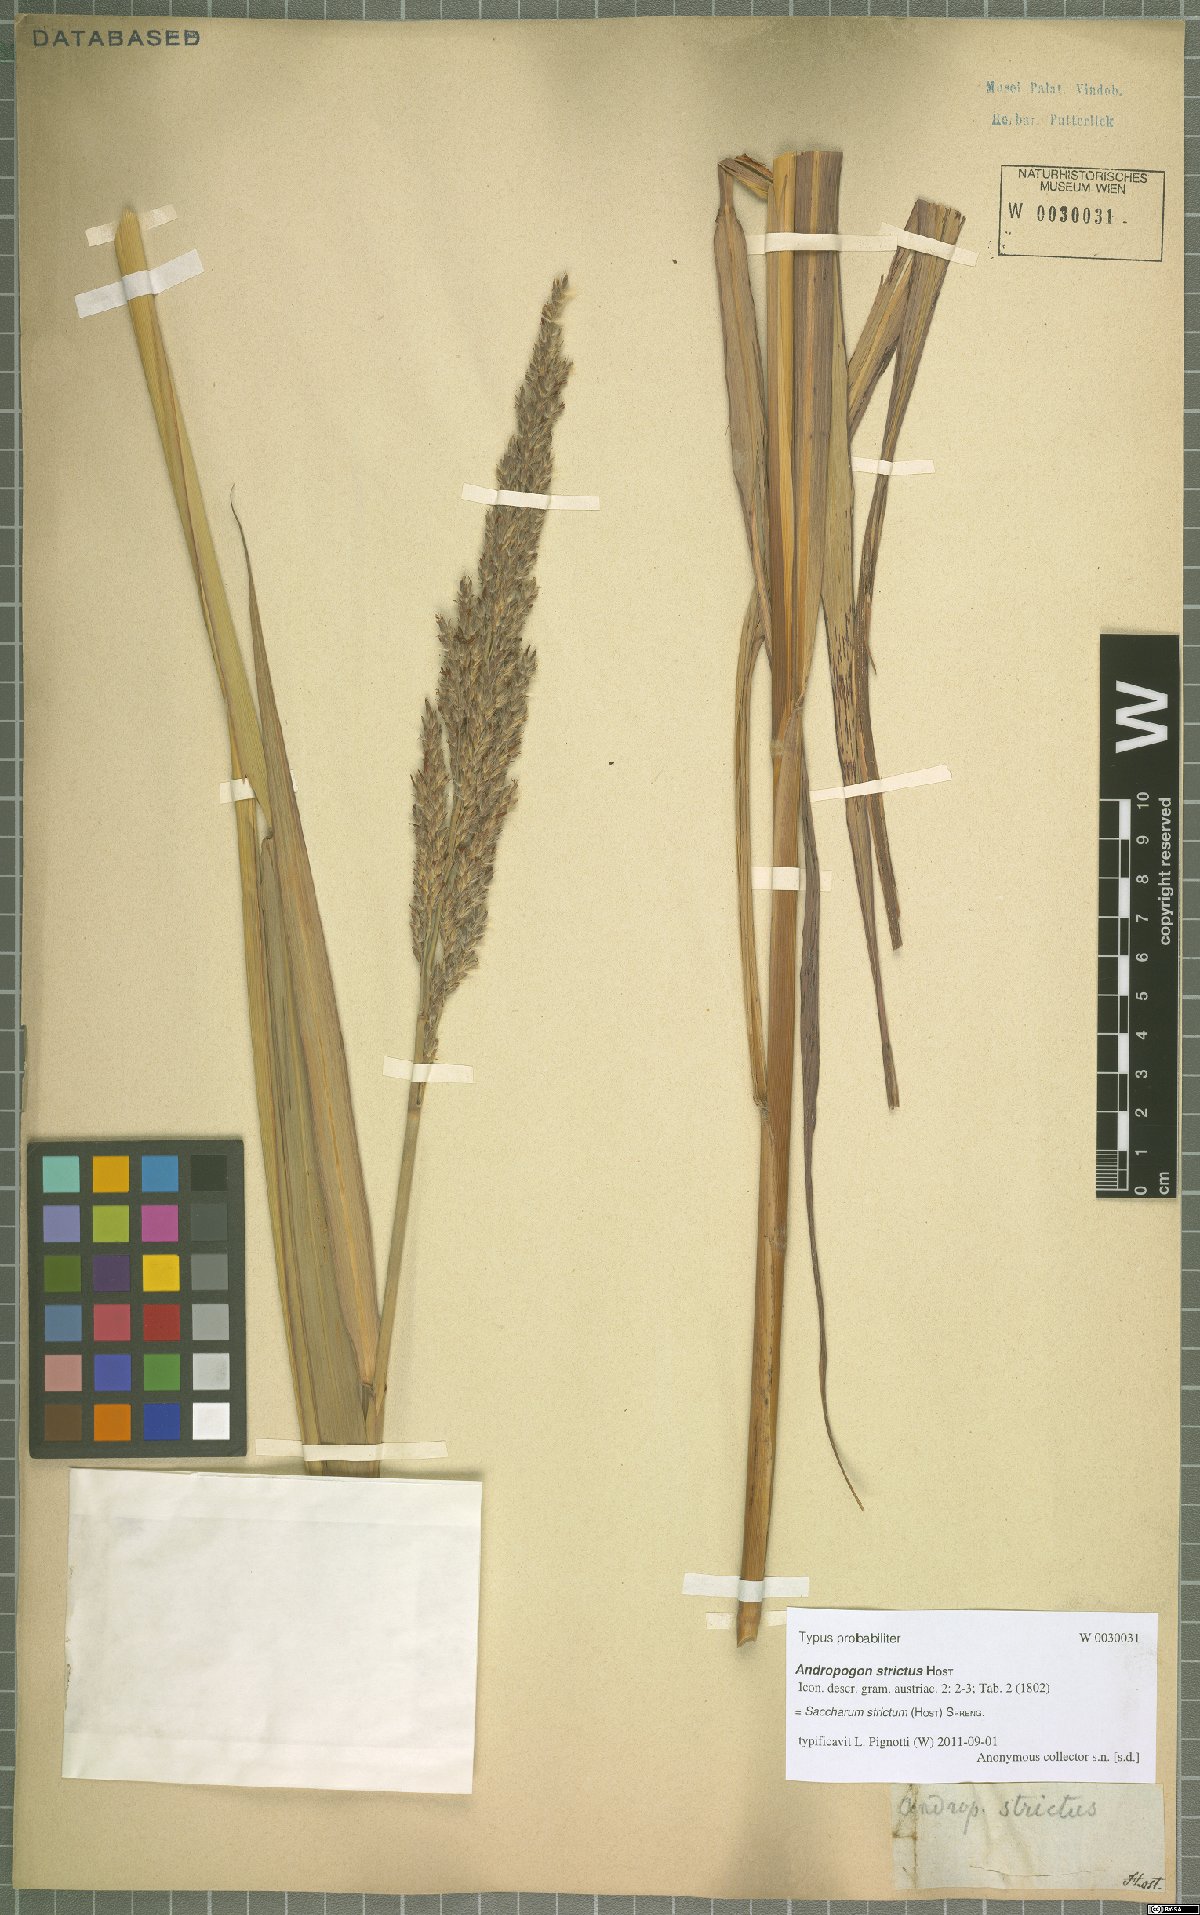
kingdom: Plantae
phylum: Tracheophyta
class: Liliopsida
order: Poales
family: Poaceae
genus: Tripidium
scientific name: Tripidium strictum
